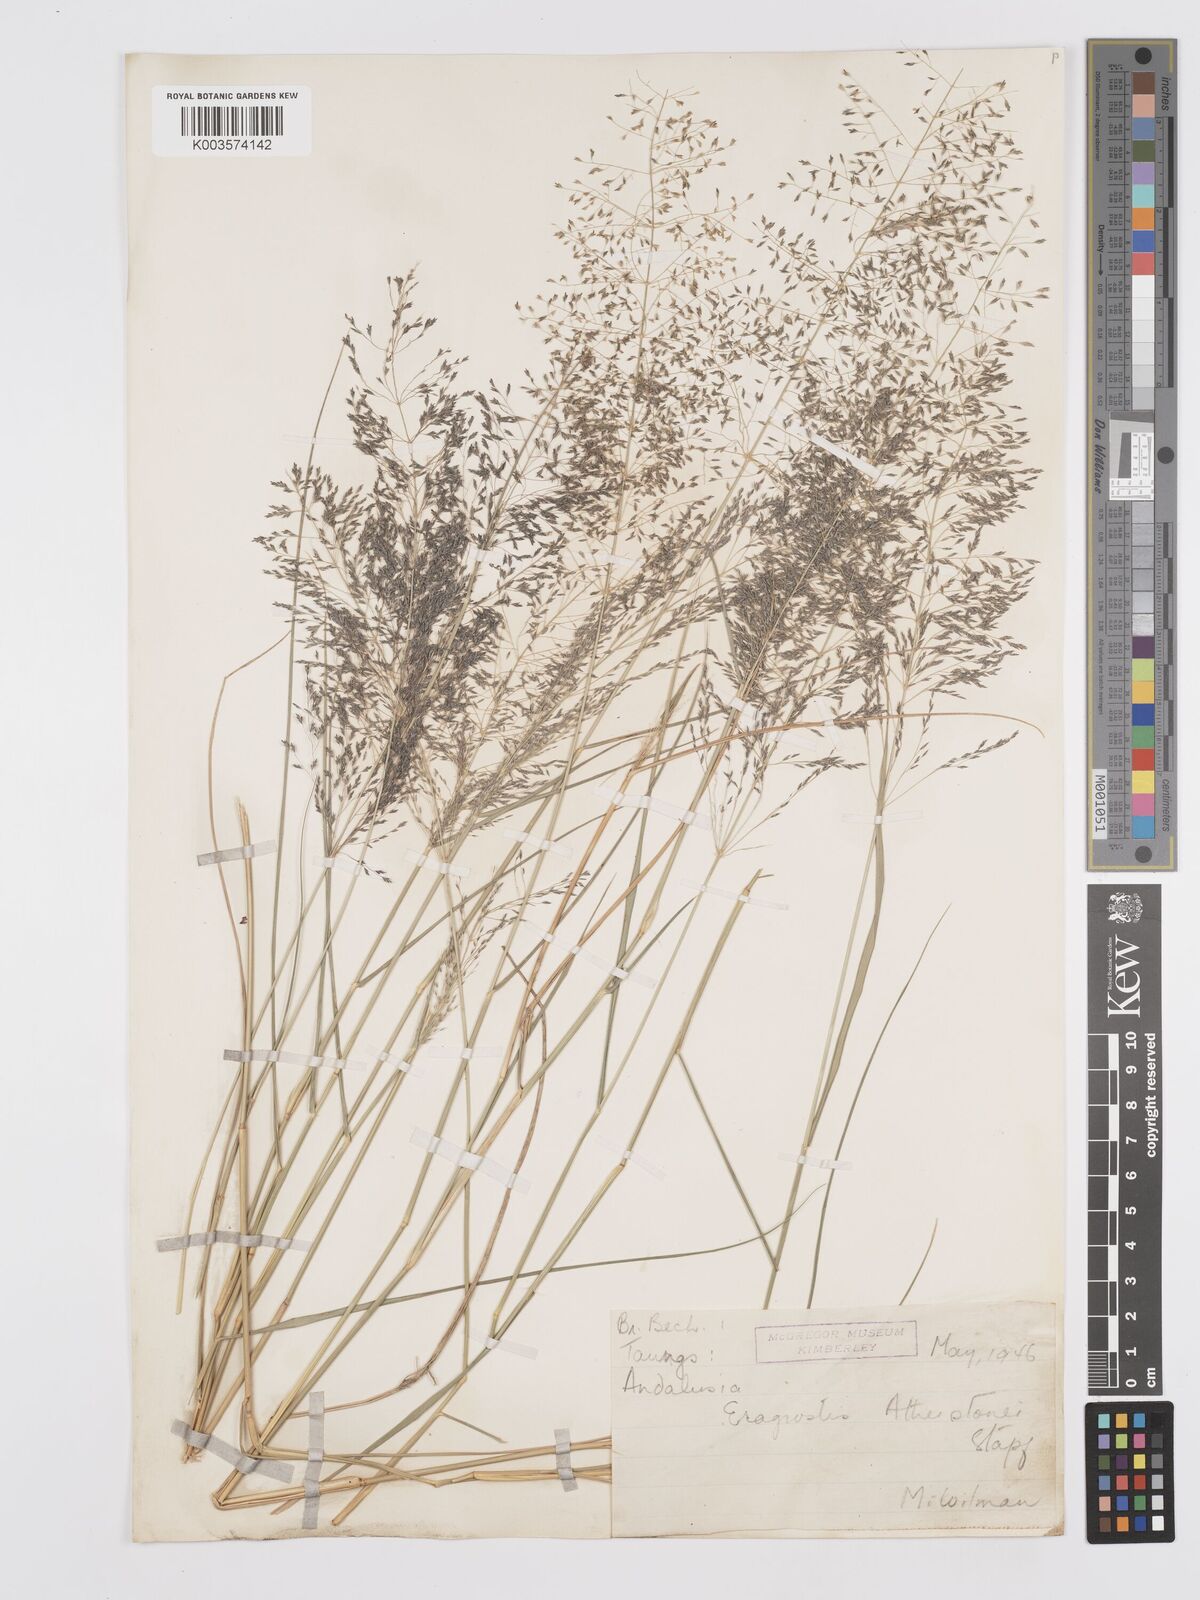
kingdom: Plantae
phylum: Tracheophyta
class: Liliopsida
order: Poales
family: Poaceae
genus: Eragrostis
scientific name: Eragrostis cylindriflora
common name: Cylinderflower lovegrass
